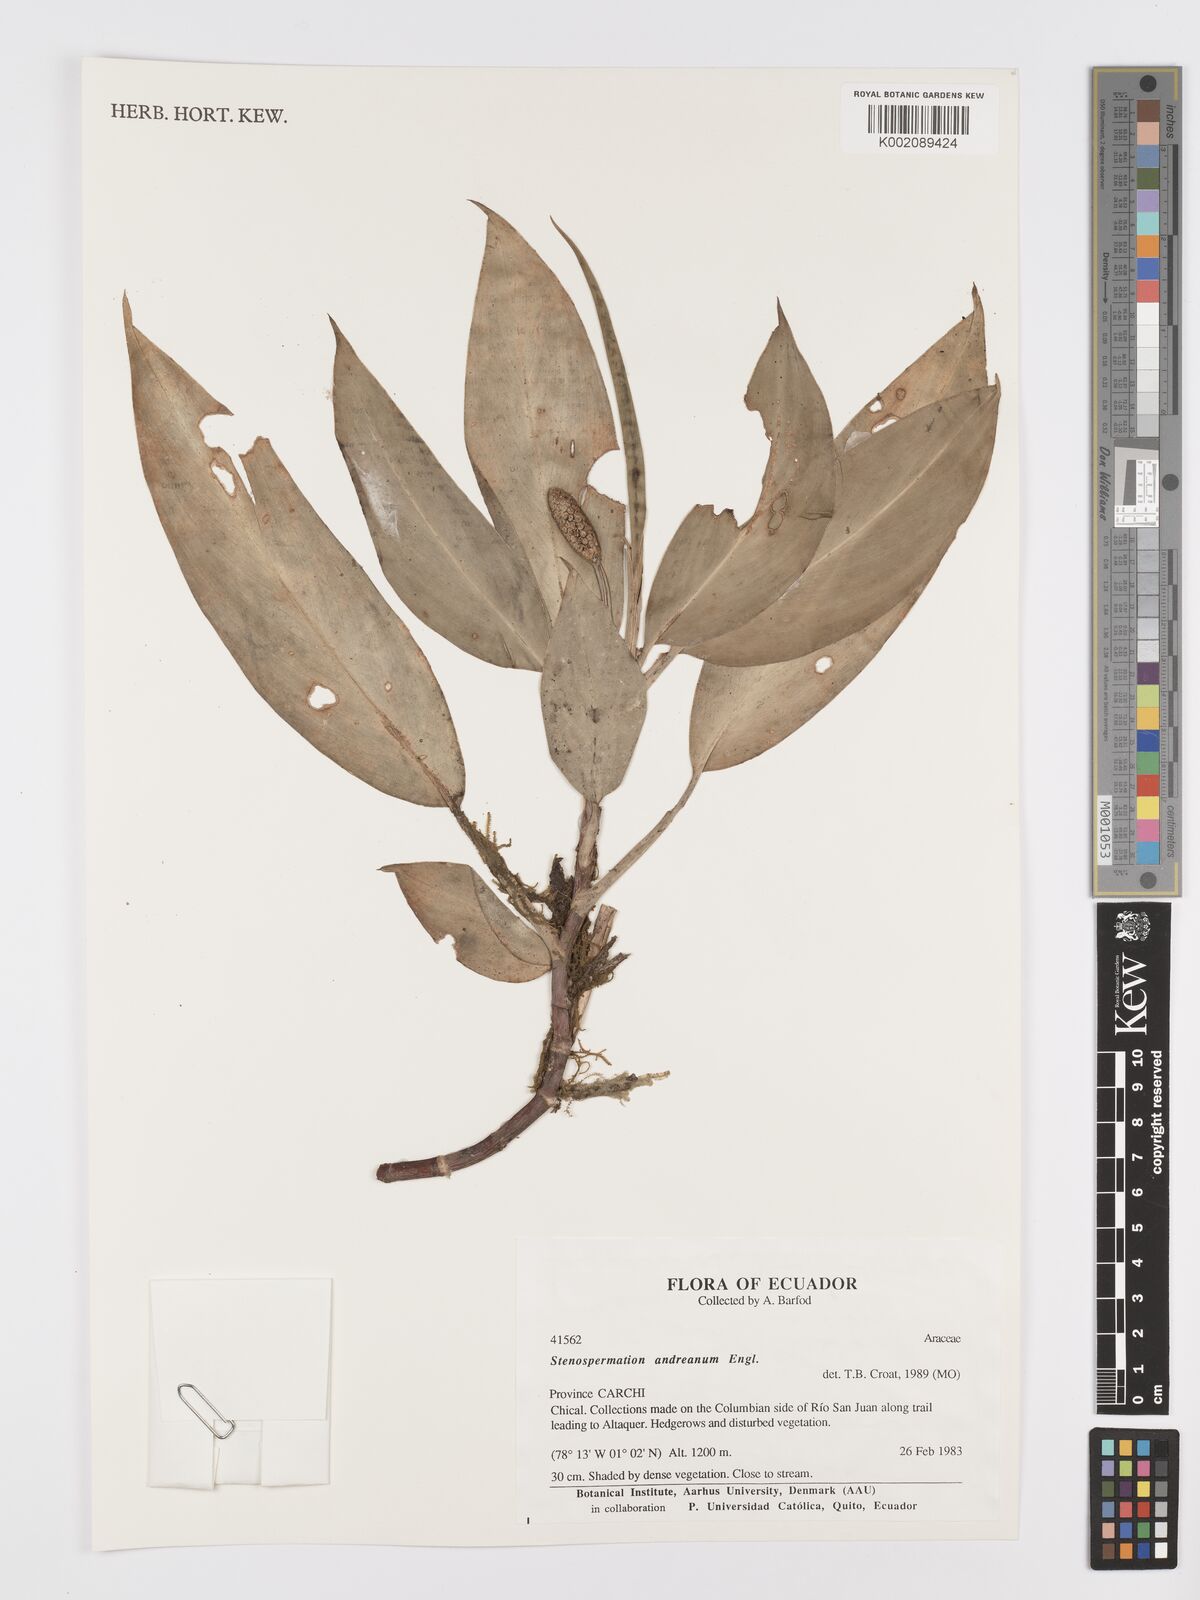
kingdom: Plantae
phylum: Tracheophyta
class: Liliopsida
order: Alismatales
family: Araceae
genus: Stenospermation
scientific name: Stenospermation andreanum
